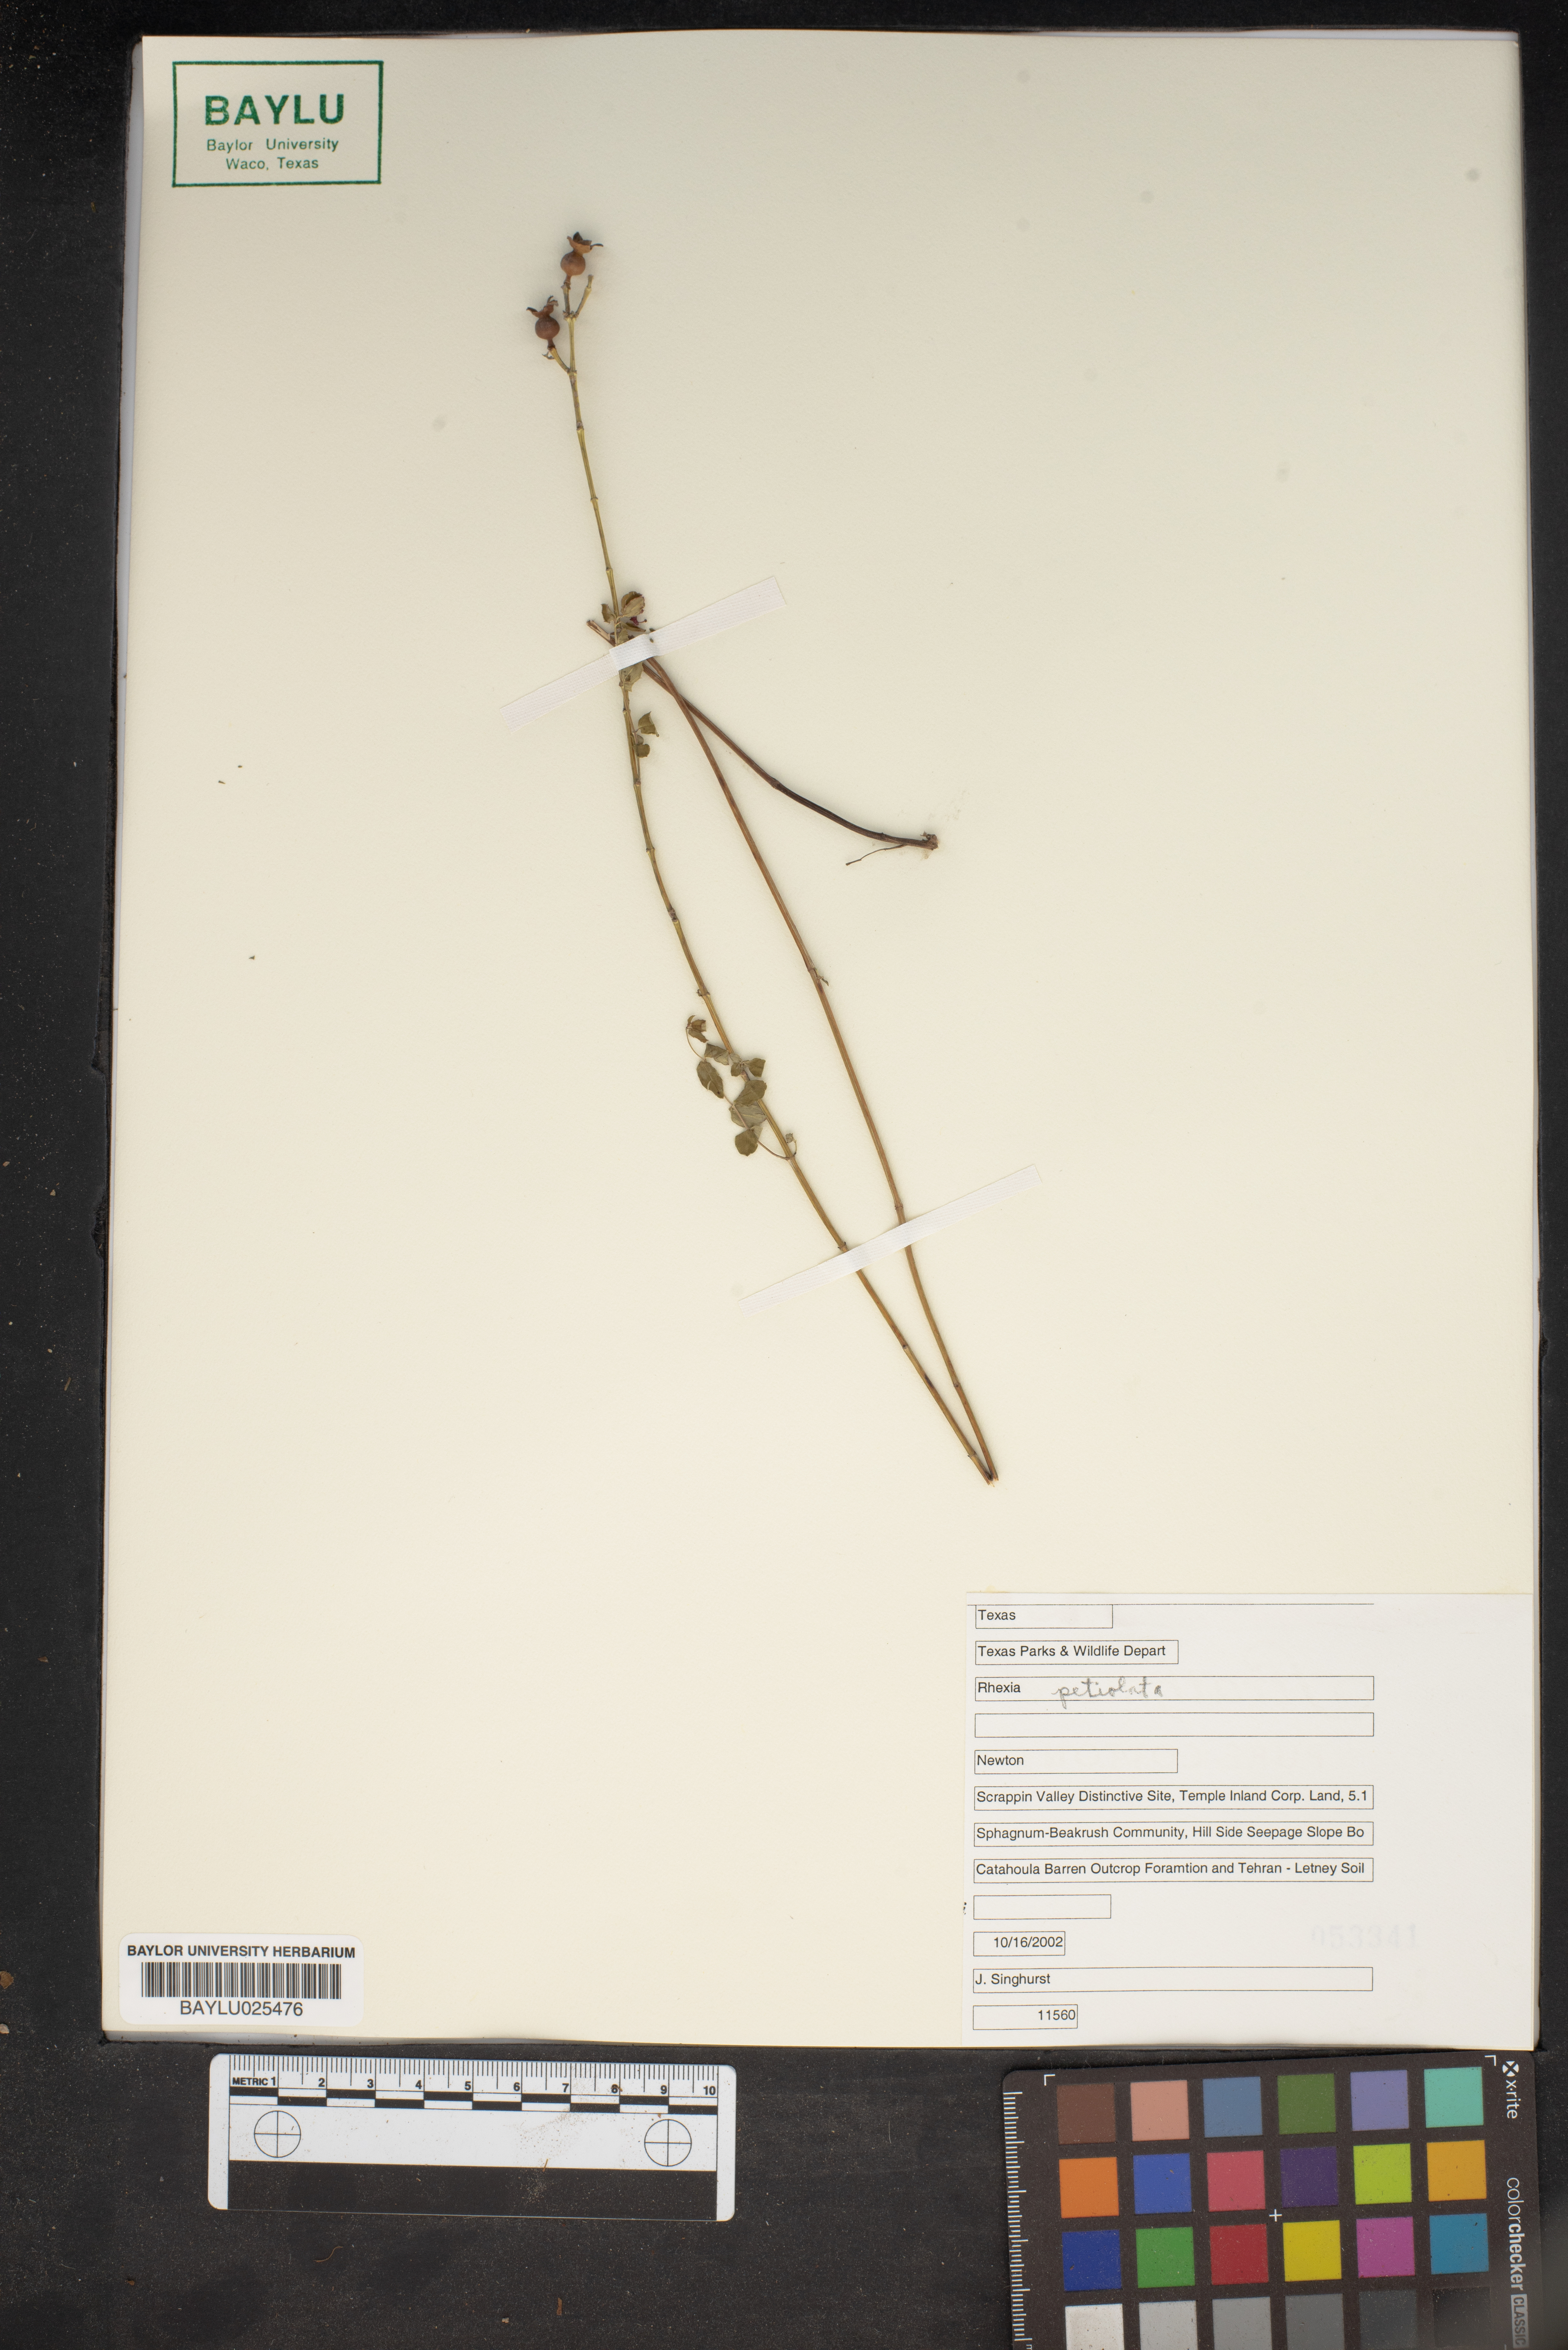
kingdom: Plantae
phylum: Tracheophyta
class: Magnoliopsida
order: Myrtales
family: Melastomataceae
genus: Rhexia
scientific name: Rhexia petiolata
